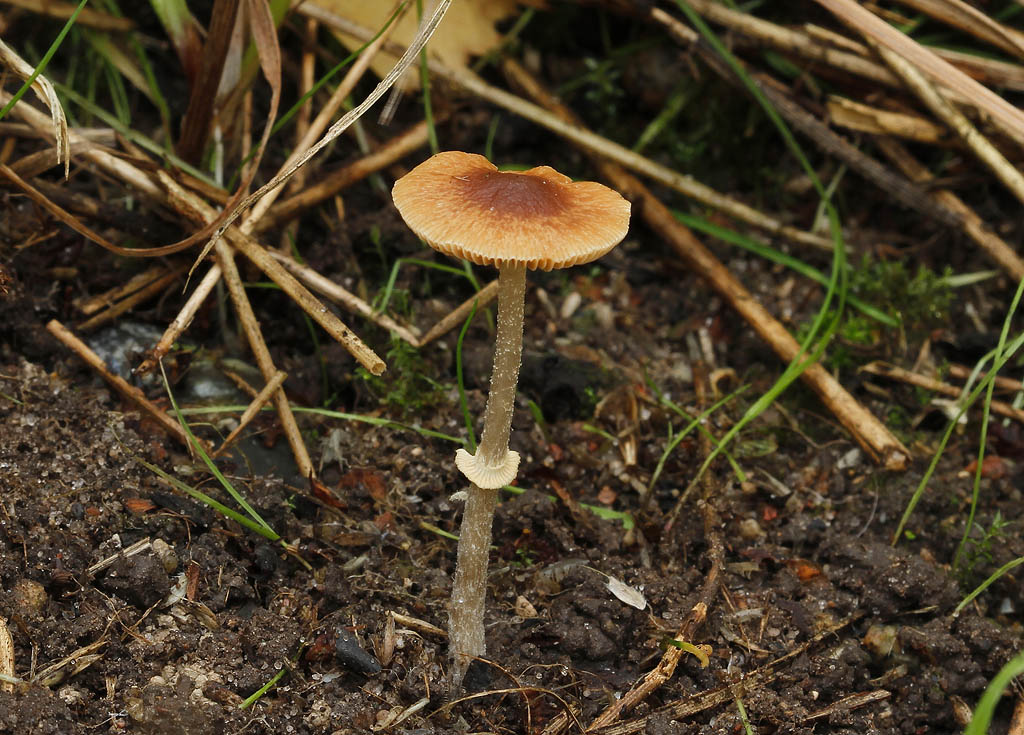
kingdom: Fungi
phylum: Basidiomycota
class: Agaricomycetes
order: Agaricales
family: Bolbitiaceae
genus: Conocybe
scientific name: Conocybe arrhenii
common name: ring-dansehat
